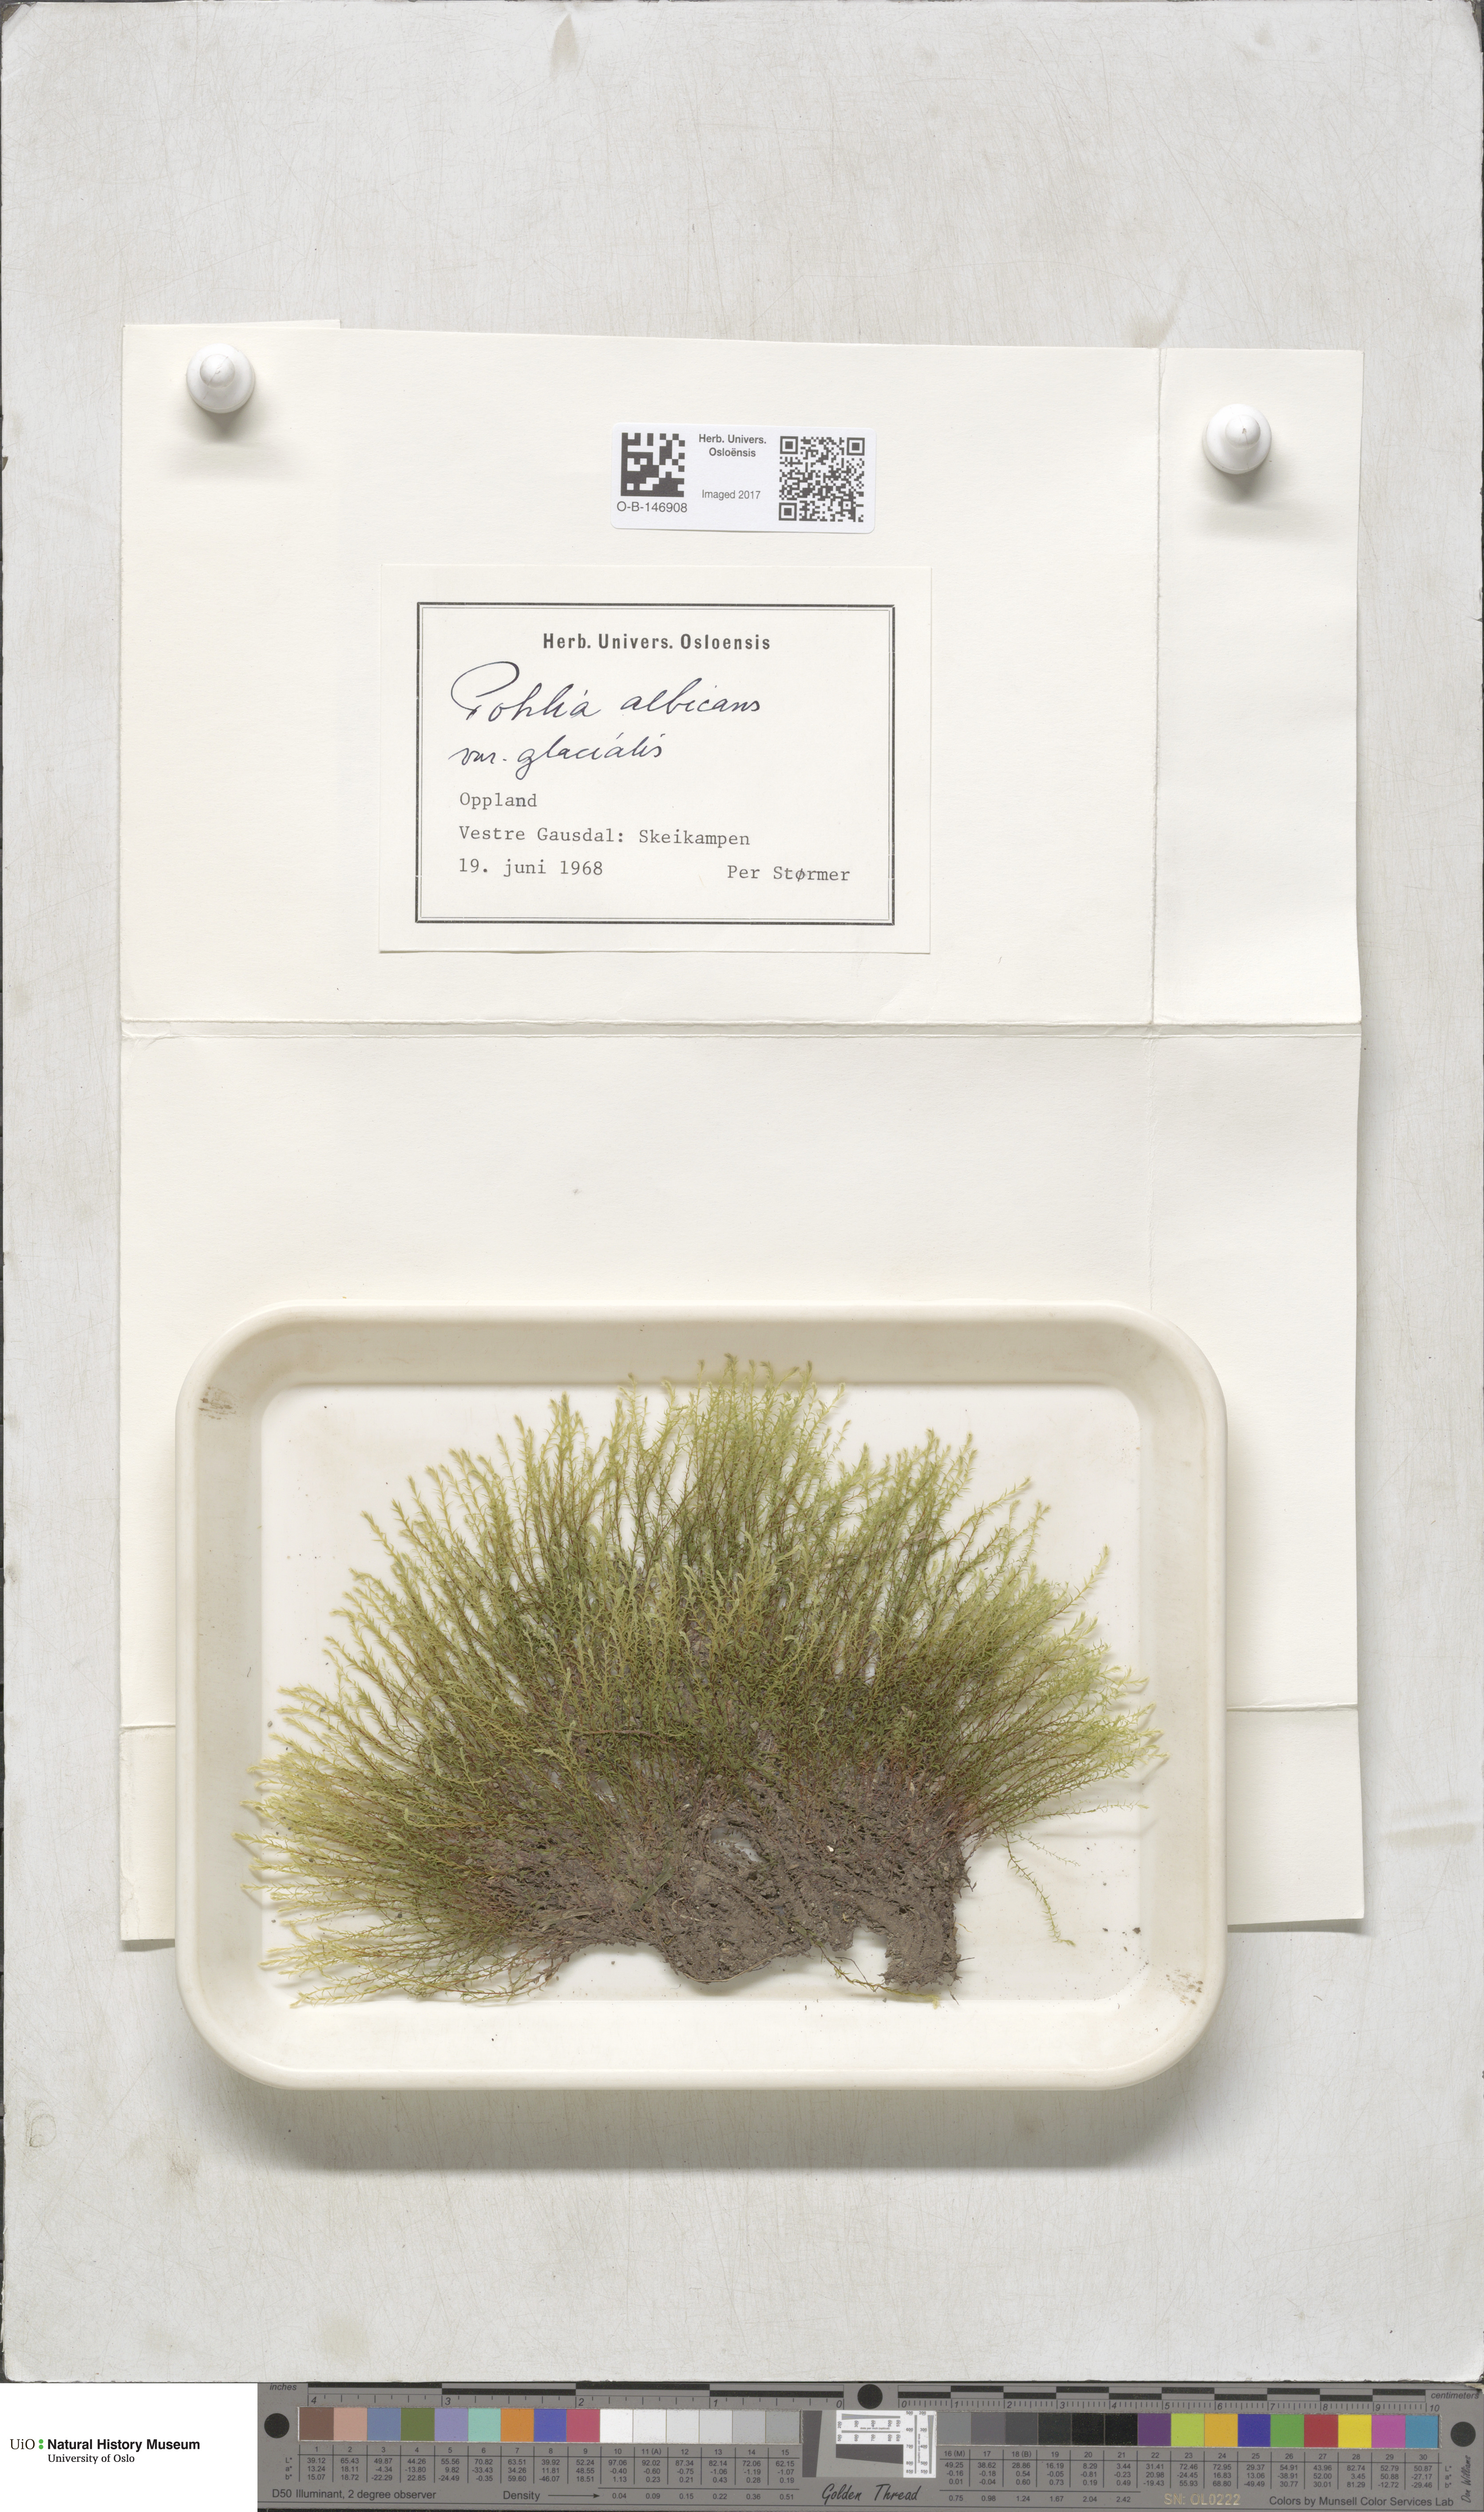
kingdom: Plantae
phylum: Bryophyta
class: Bryopsida
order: Bryales
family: Mniaceae
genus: Pohlia
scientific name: Pohlia wahlenbergii
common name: Wahlenberg's nodding moss
